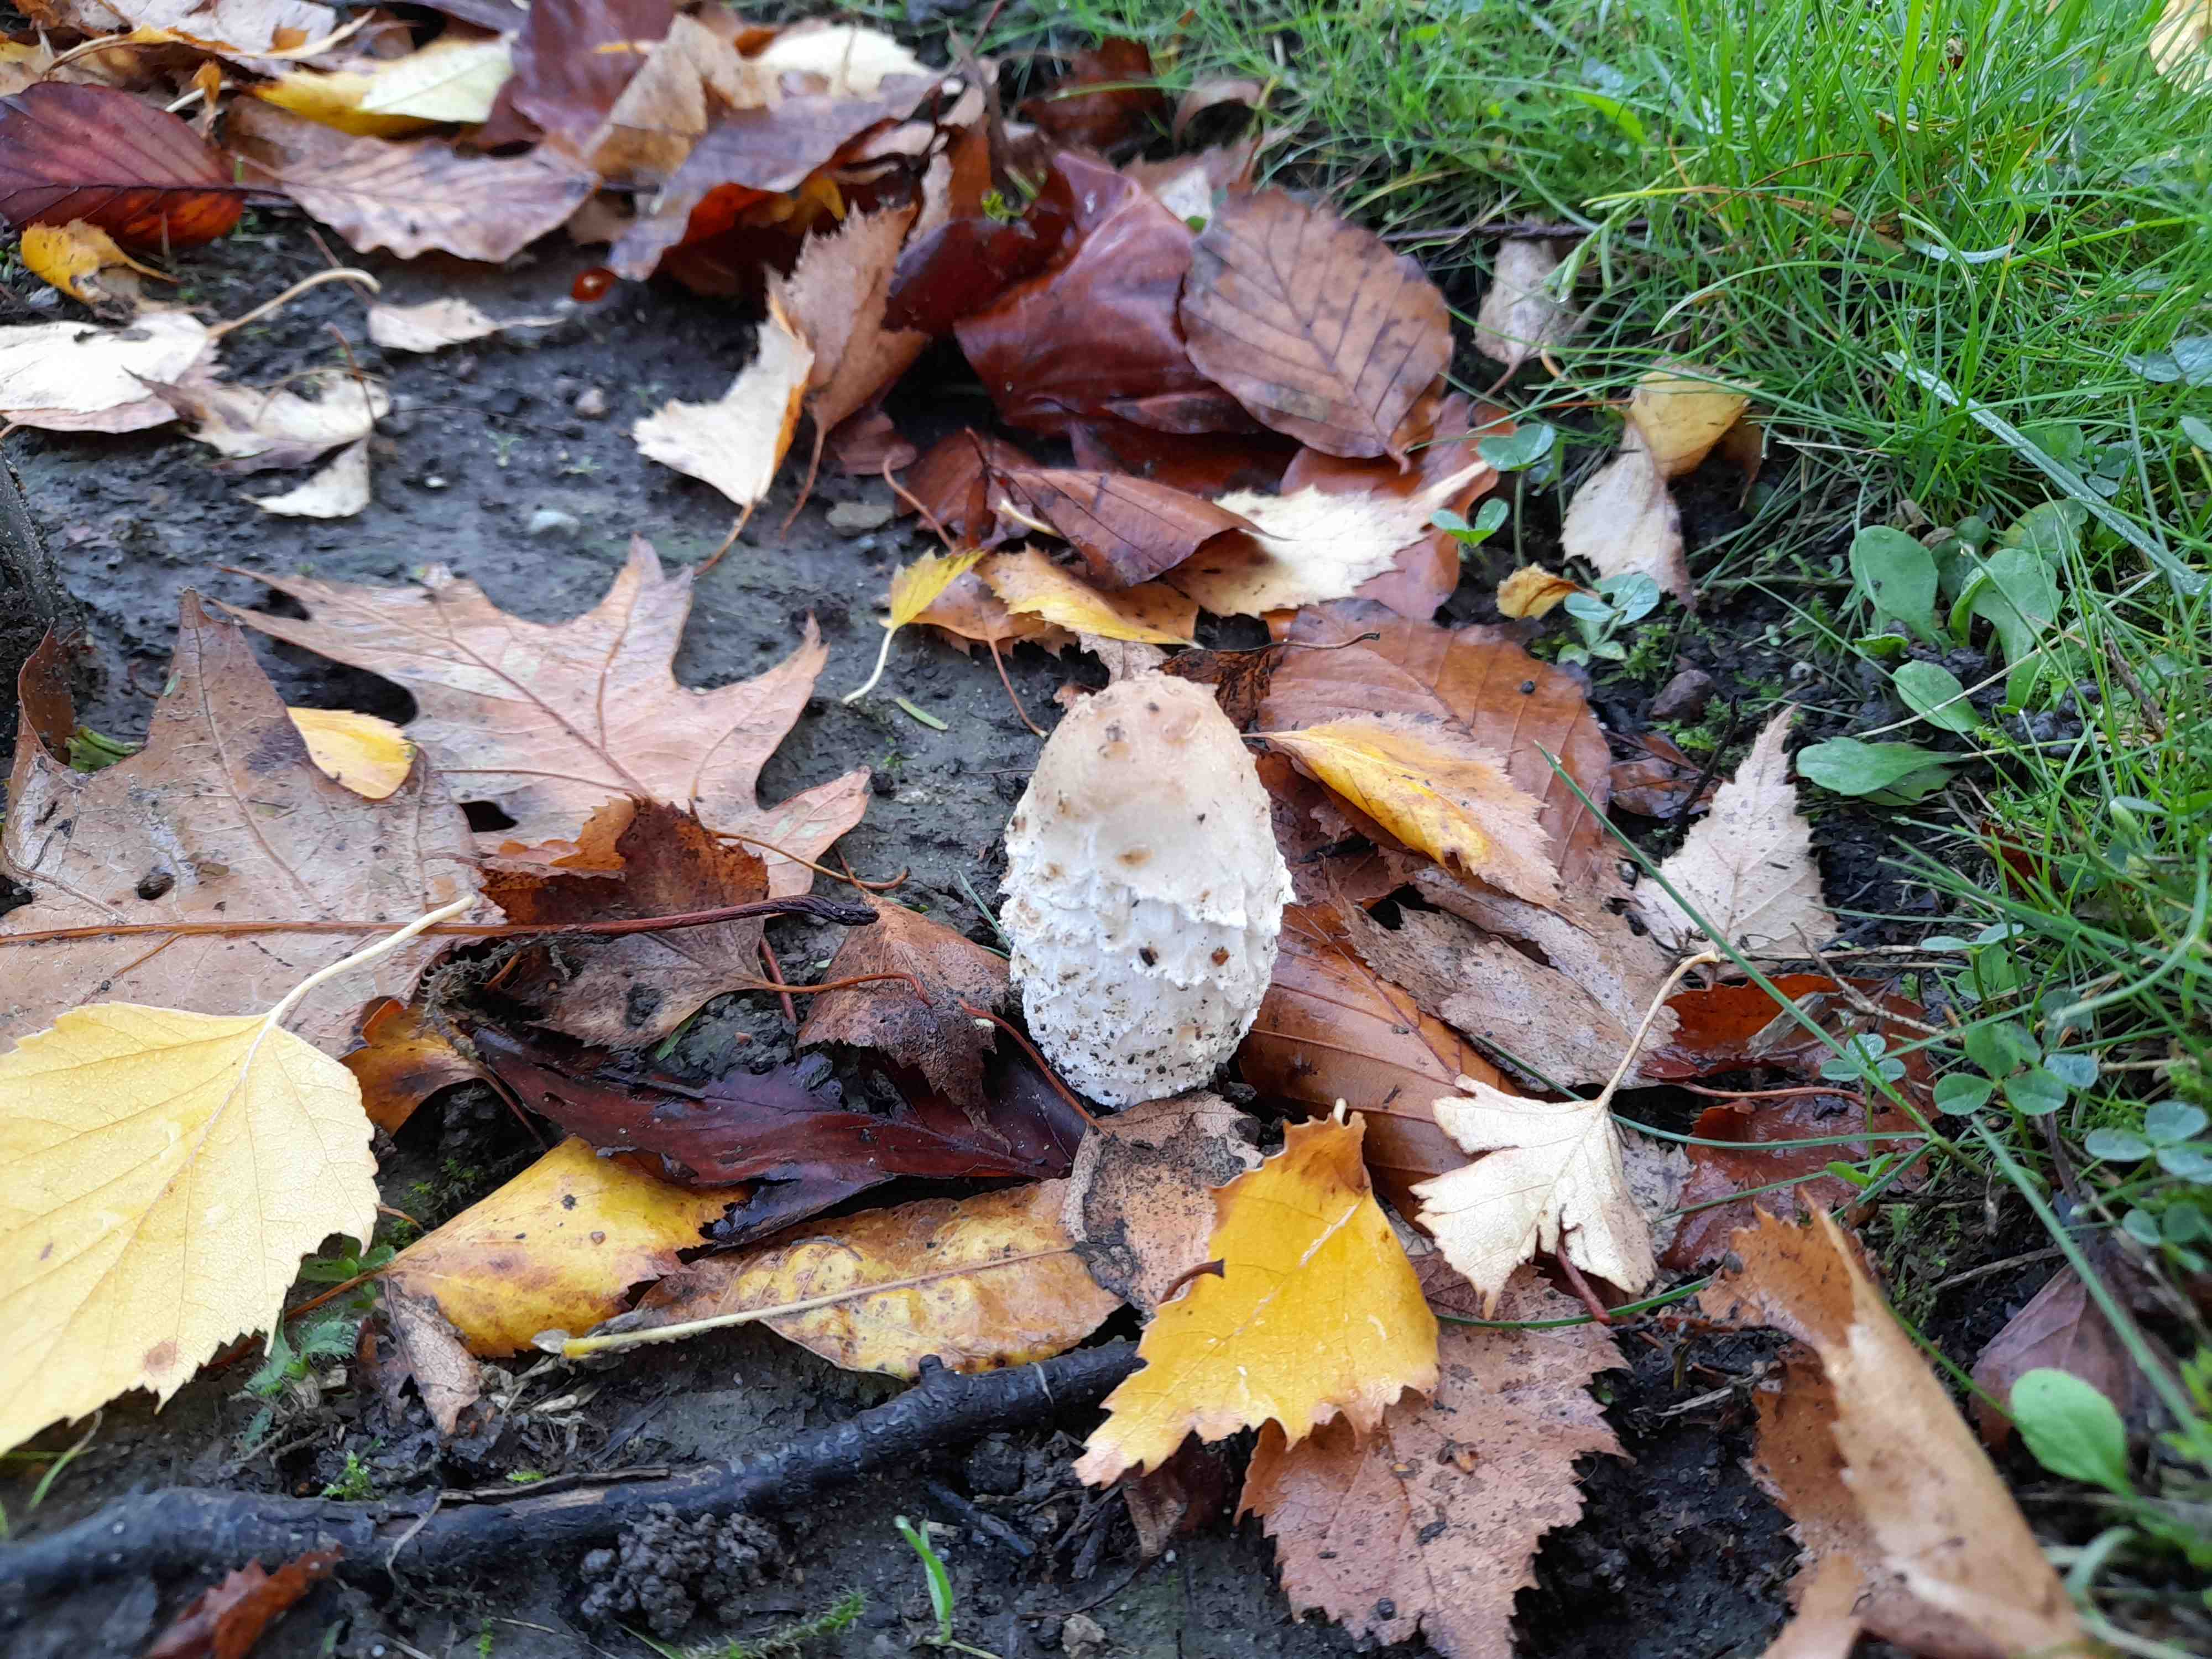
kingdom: Fungi
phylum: Basidiomycota
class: Agaricomycetes
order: Agaricales
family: Agaricaceae
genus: Coprinus
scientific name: Coprinus comatus
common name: stor parykhat
